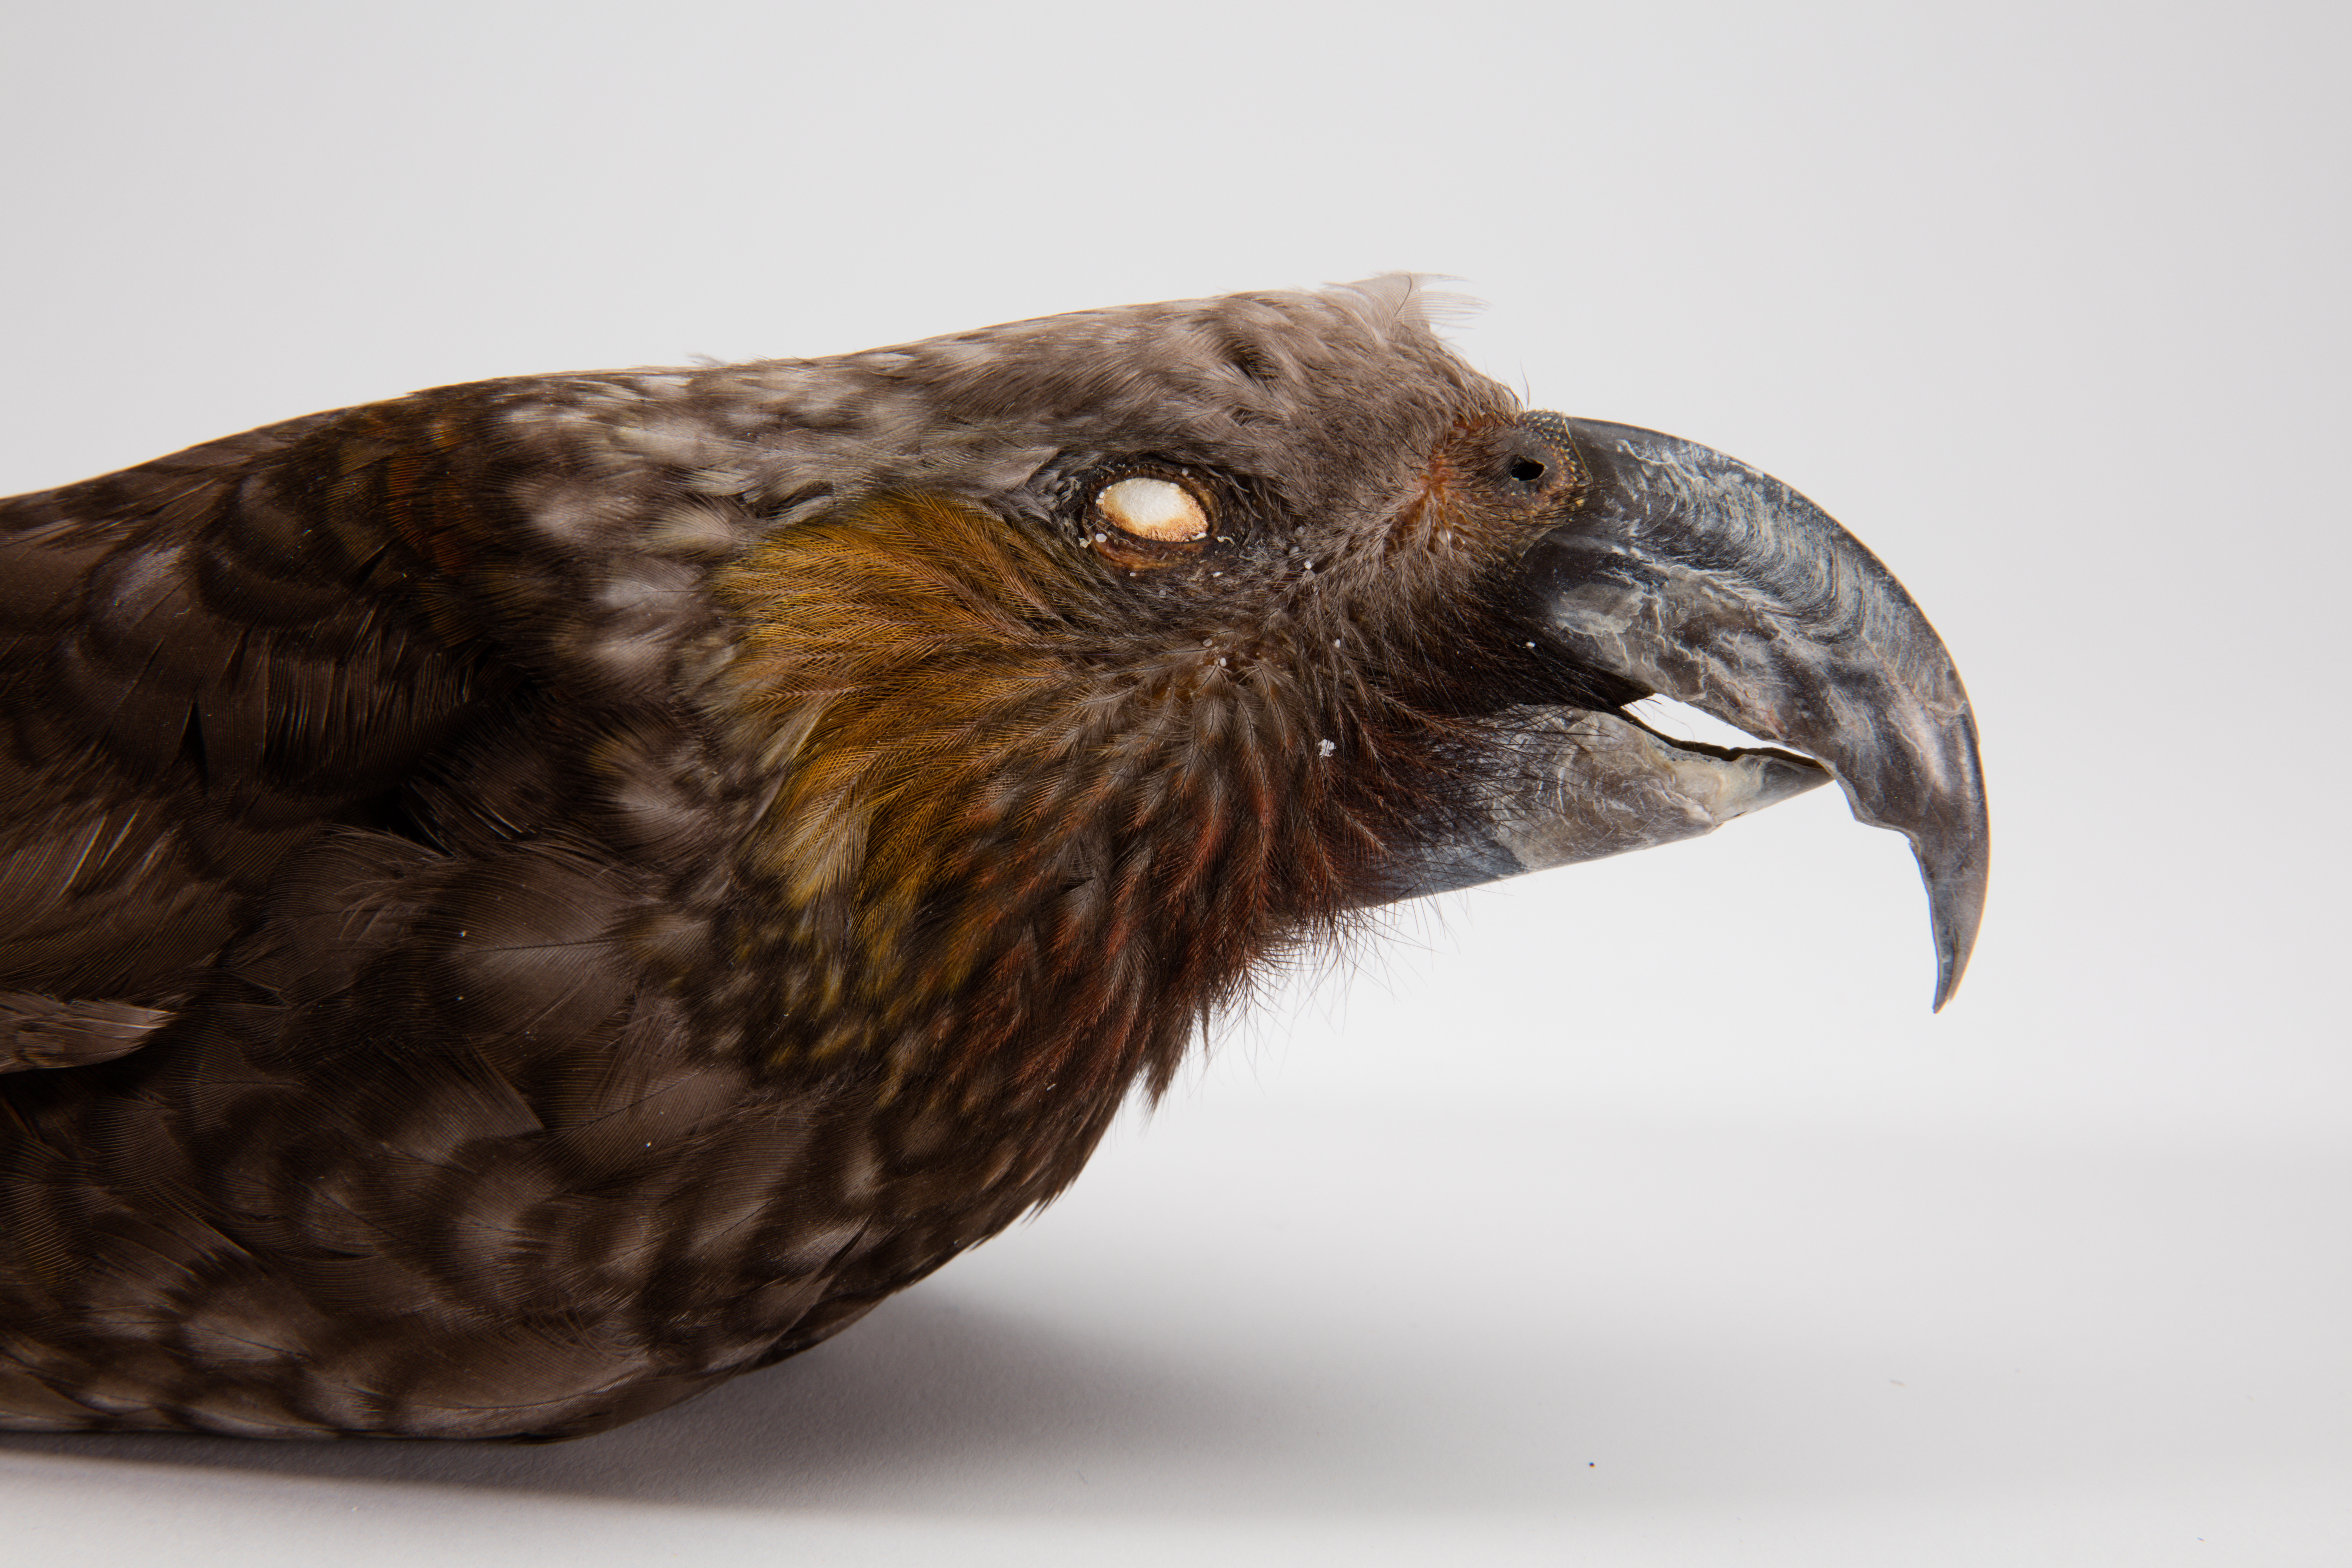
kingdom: Animalia
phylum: Chordata
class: Aves
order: Psittaciformes
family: Psittacidae
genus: Nestor
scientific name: Nestor meridionalis
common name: New zealand kaka
